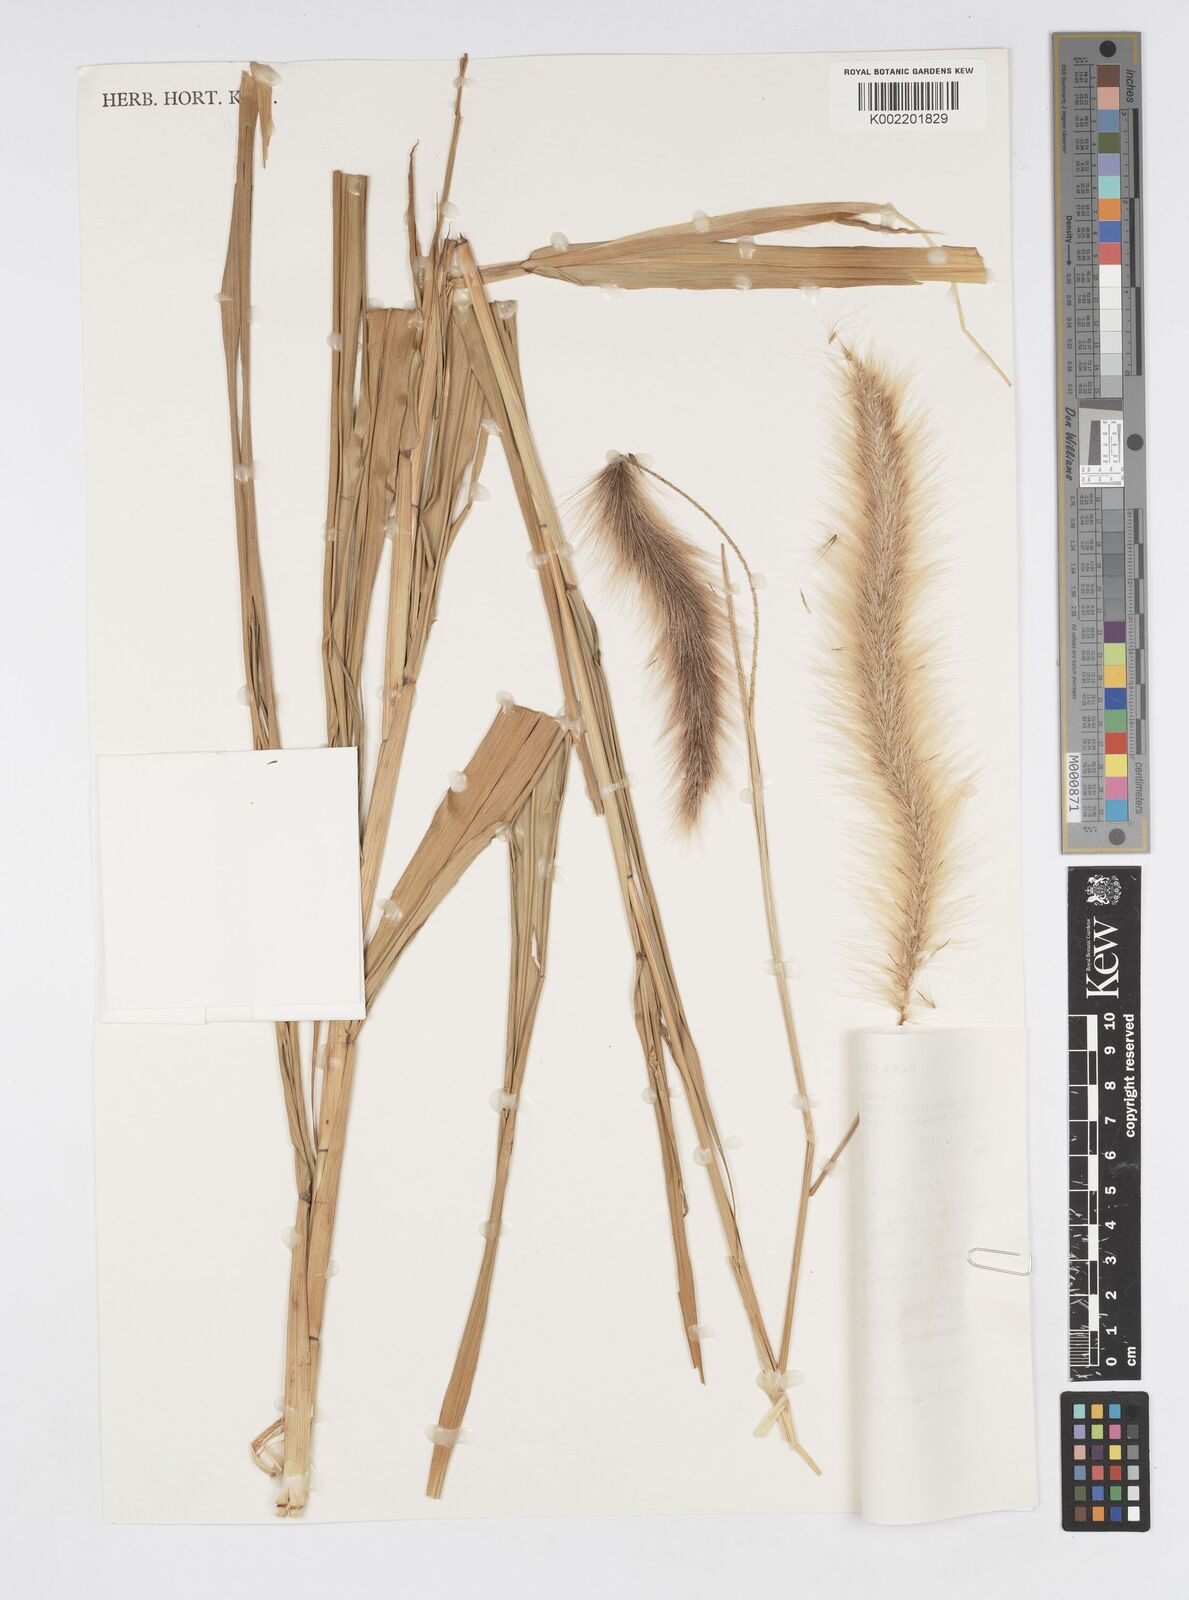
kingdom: Plantae
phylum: Tracheophyta
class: Liliopsida
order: Poales
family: Poaceae
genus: Cenchrus
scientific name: Cenchrus purpureus
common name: Elephant grass
